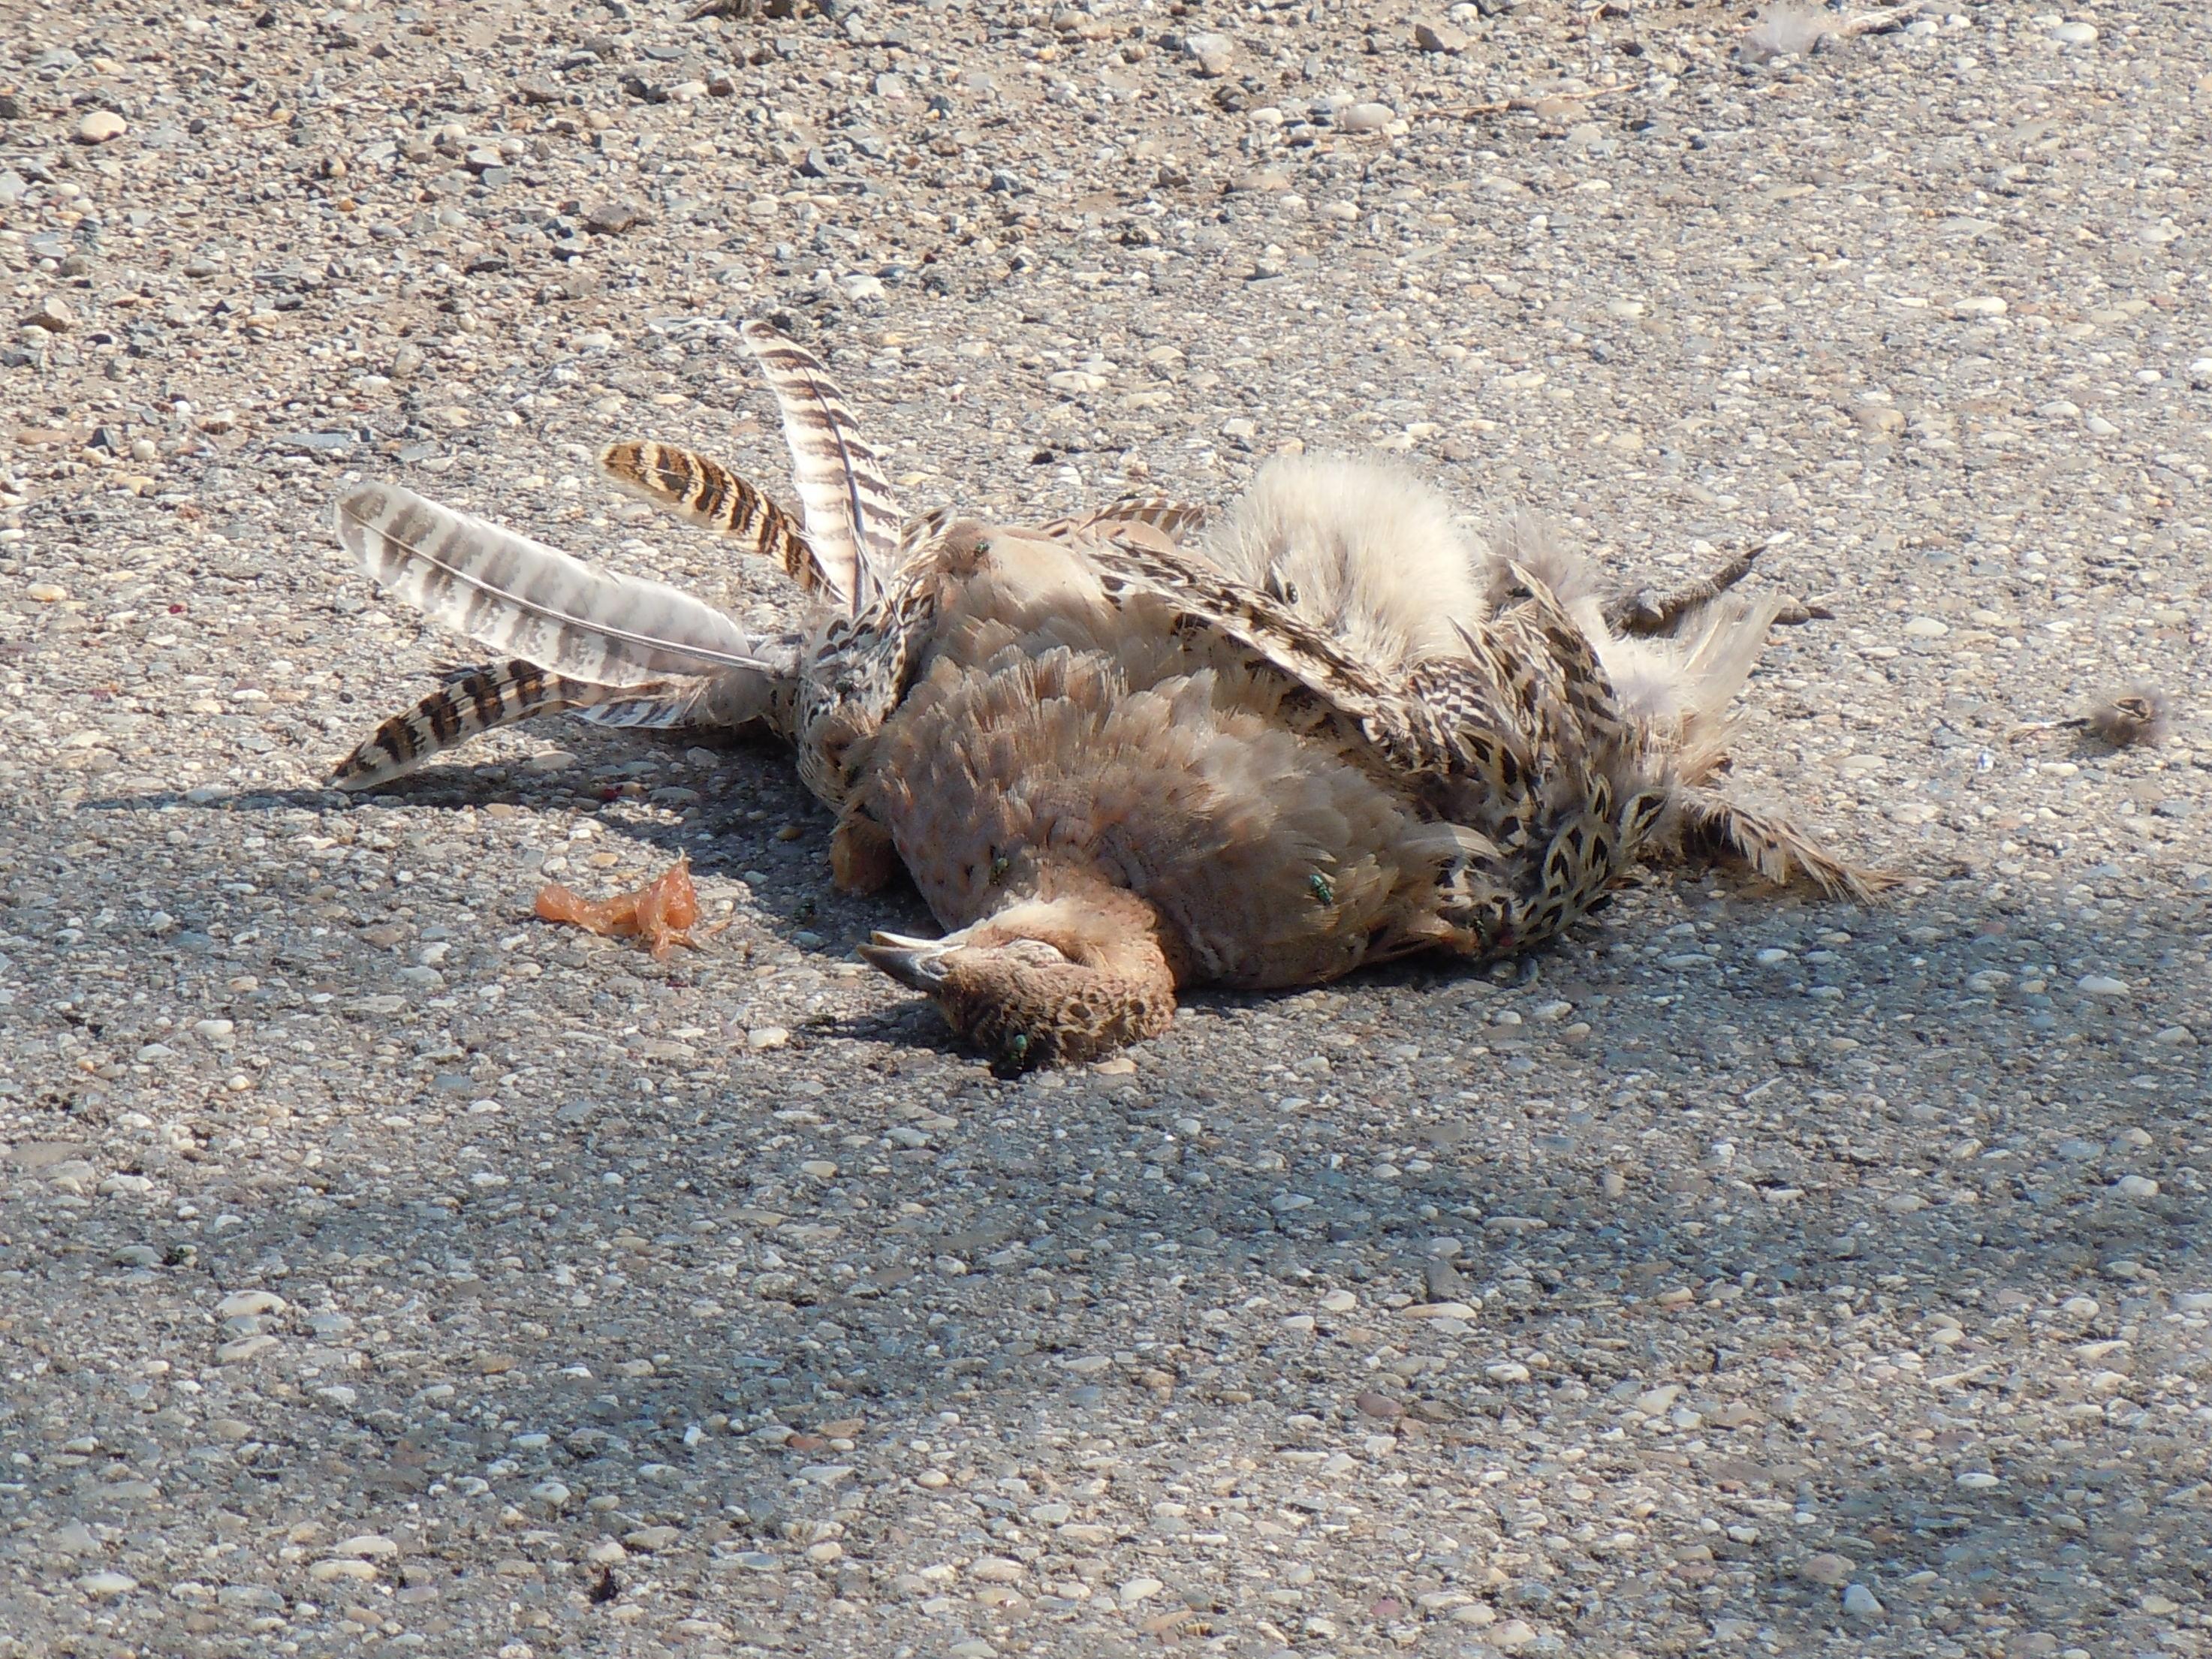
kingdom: Animalia
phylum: Chordata
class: Aves
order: Galliformes
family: Phasianidae
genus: Phasianus
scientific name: Phasianus colchicus
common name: Common pheasant
